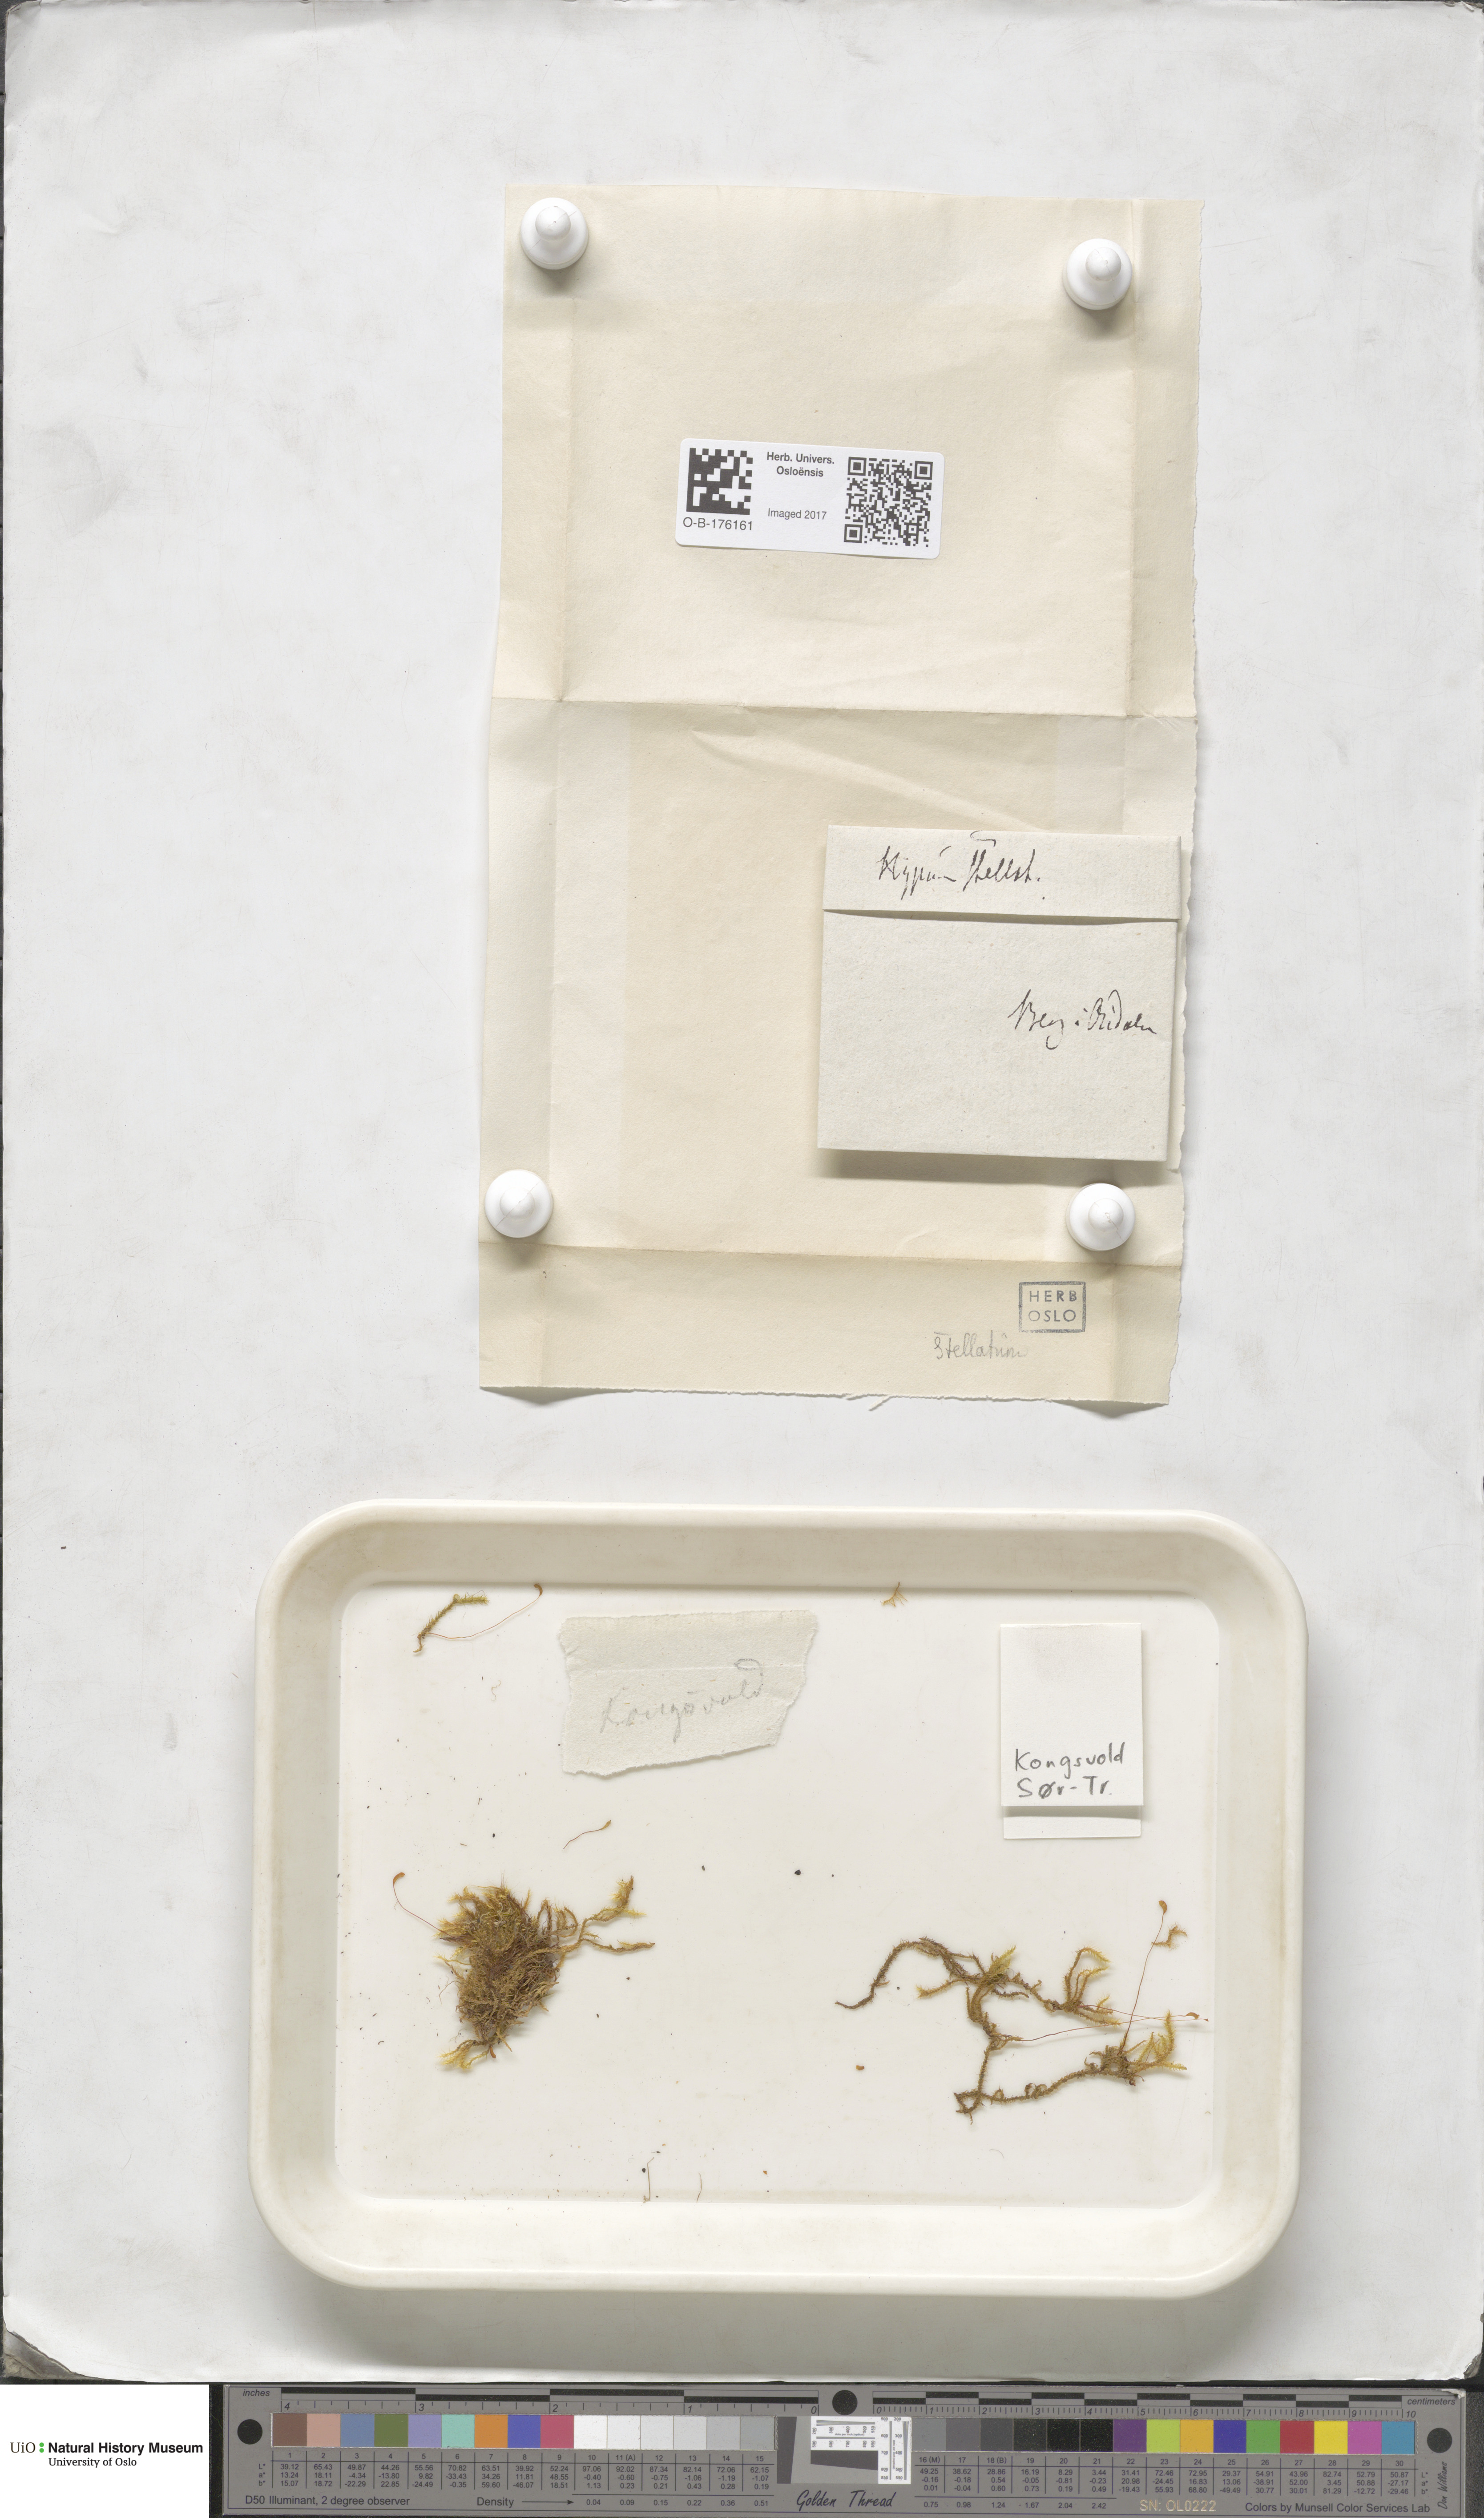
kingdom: Plantae
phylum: Bryophyta
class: Bryopsida
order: Hypnales
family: Amblystegiaceae
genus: Campylium
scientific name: Campylium stellatum
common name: Yellow starry fen moss
